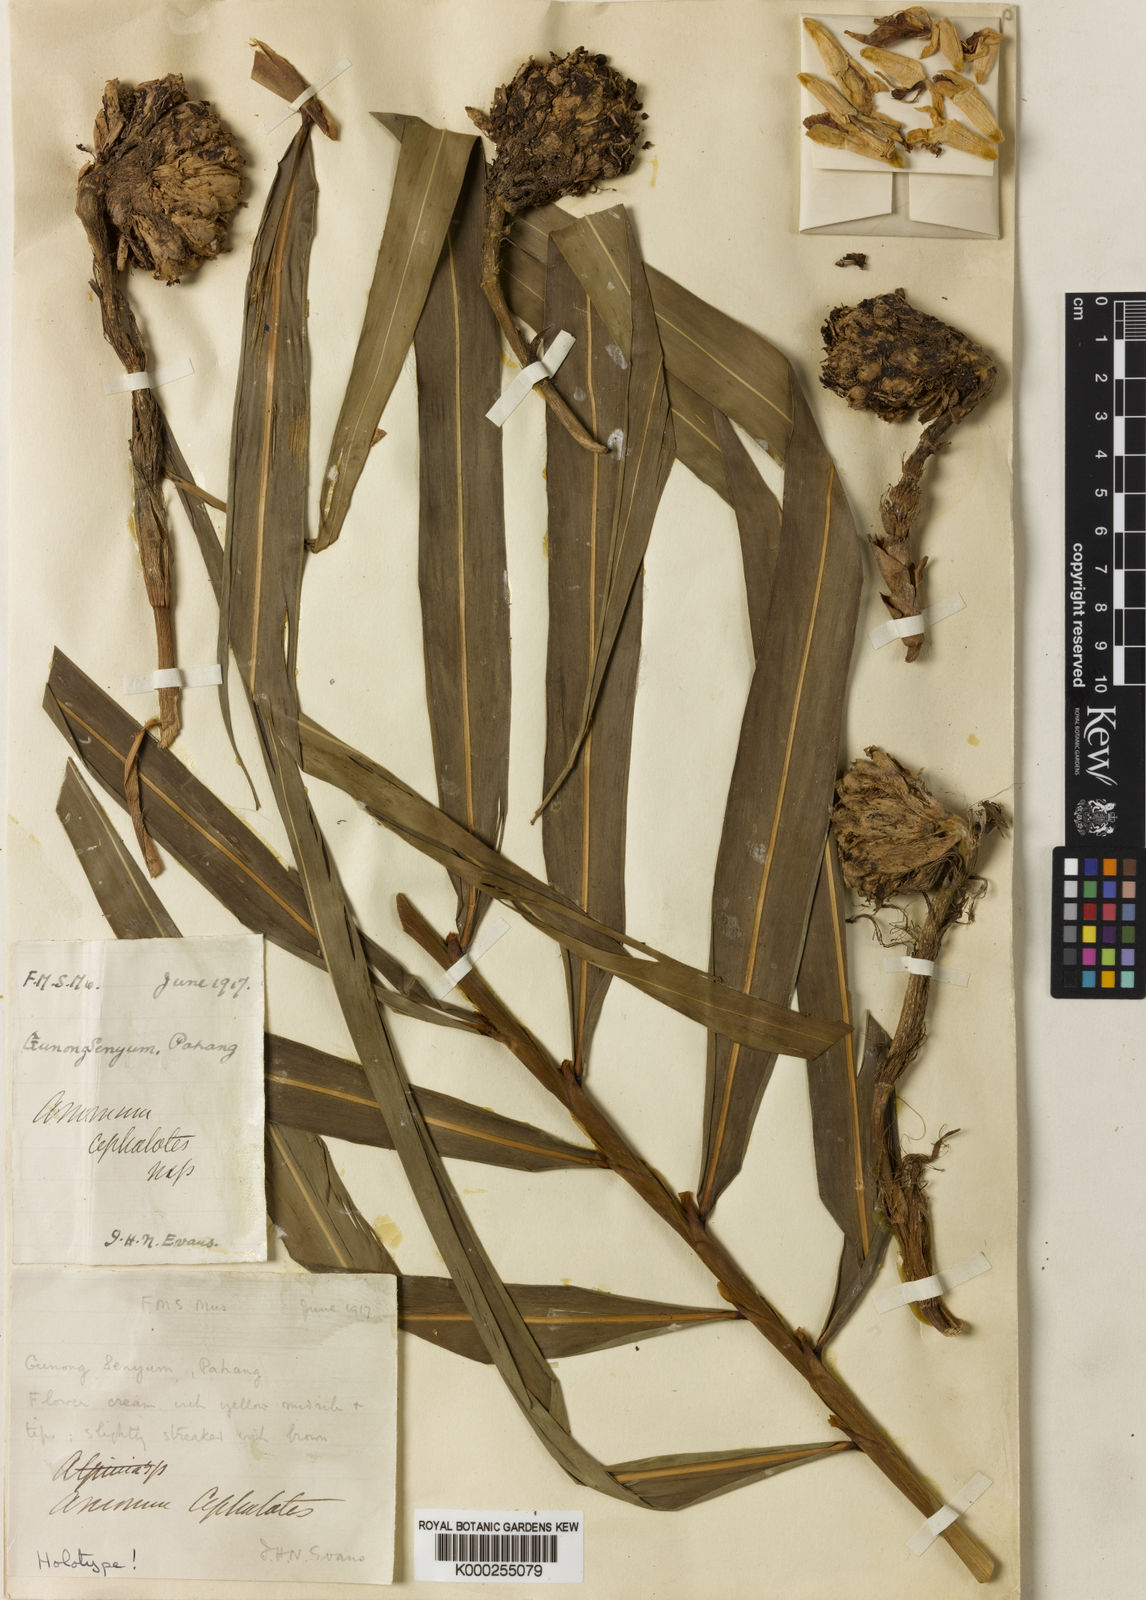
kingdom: Plantae
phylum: Tracheophyta
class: Liliopsida
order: Zingiberales
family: Zingiberaceae
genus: Amomum
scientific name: Amomum cephalotes
